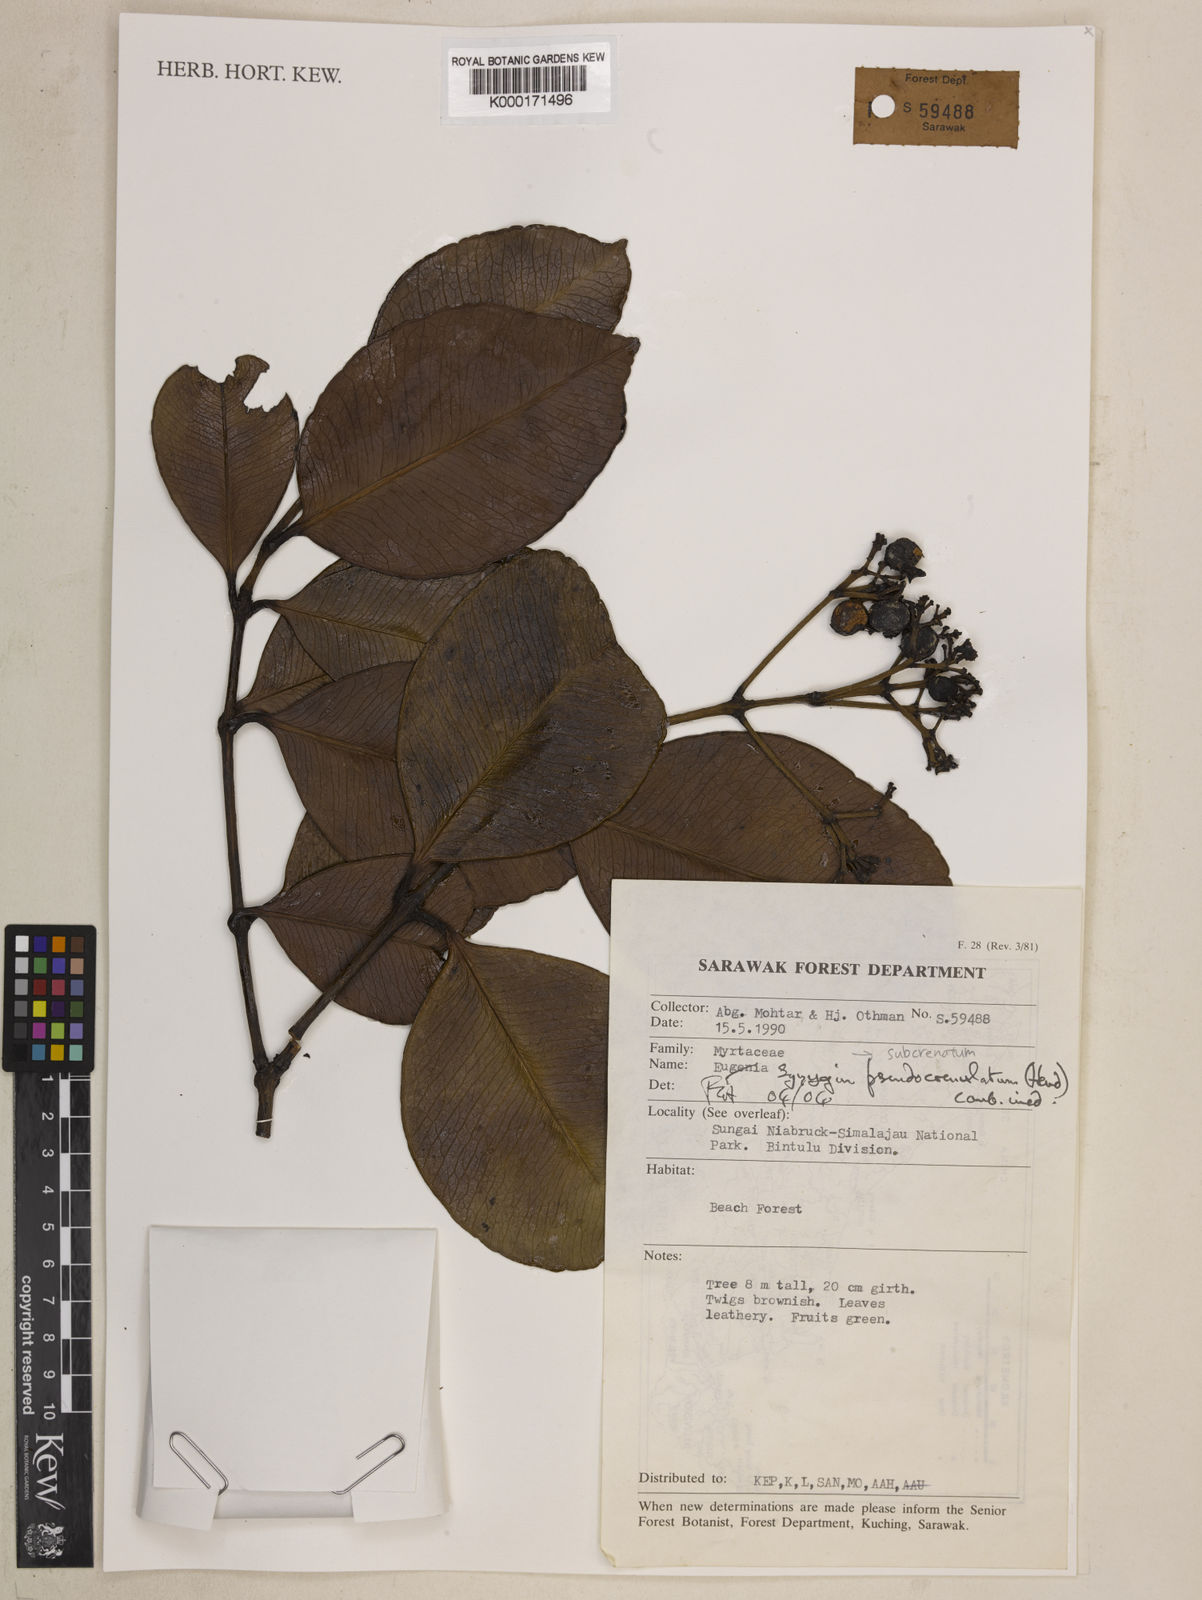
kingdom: Plantae
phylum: Tracheophyta
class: Magnoliopsida
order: Myrtales
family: Myrtaceae
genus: Syzygium
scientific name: Syzygium pseudocrenulatum
